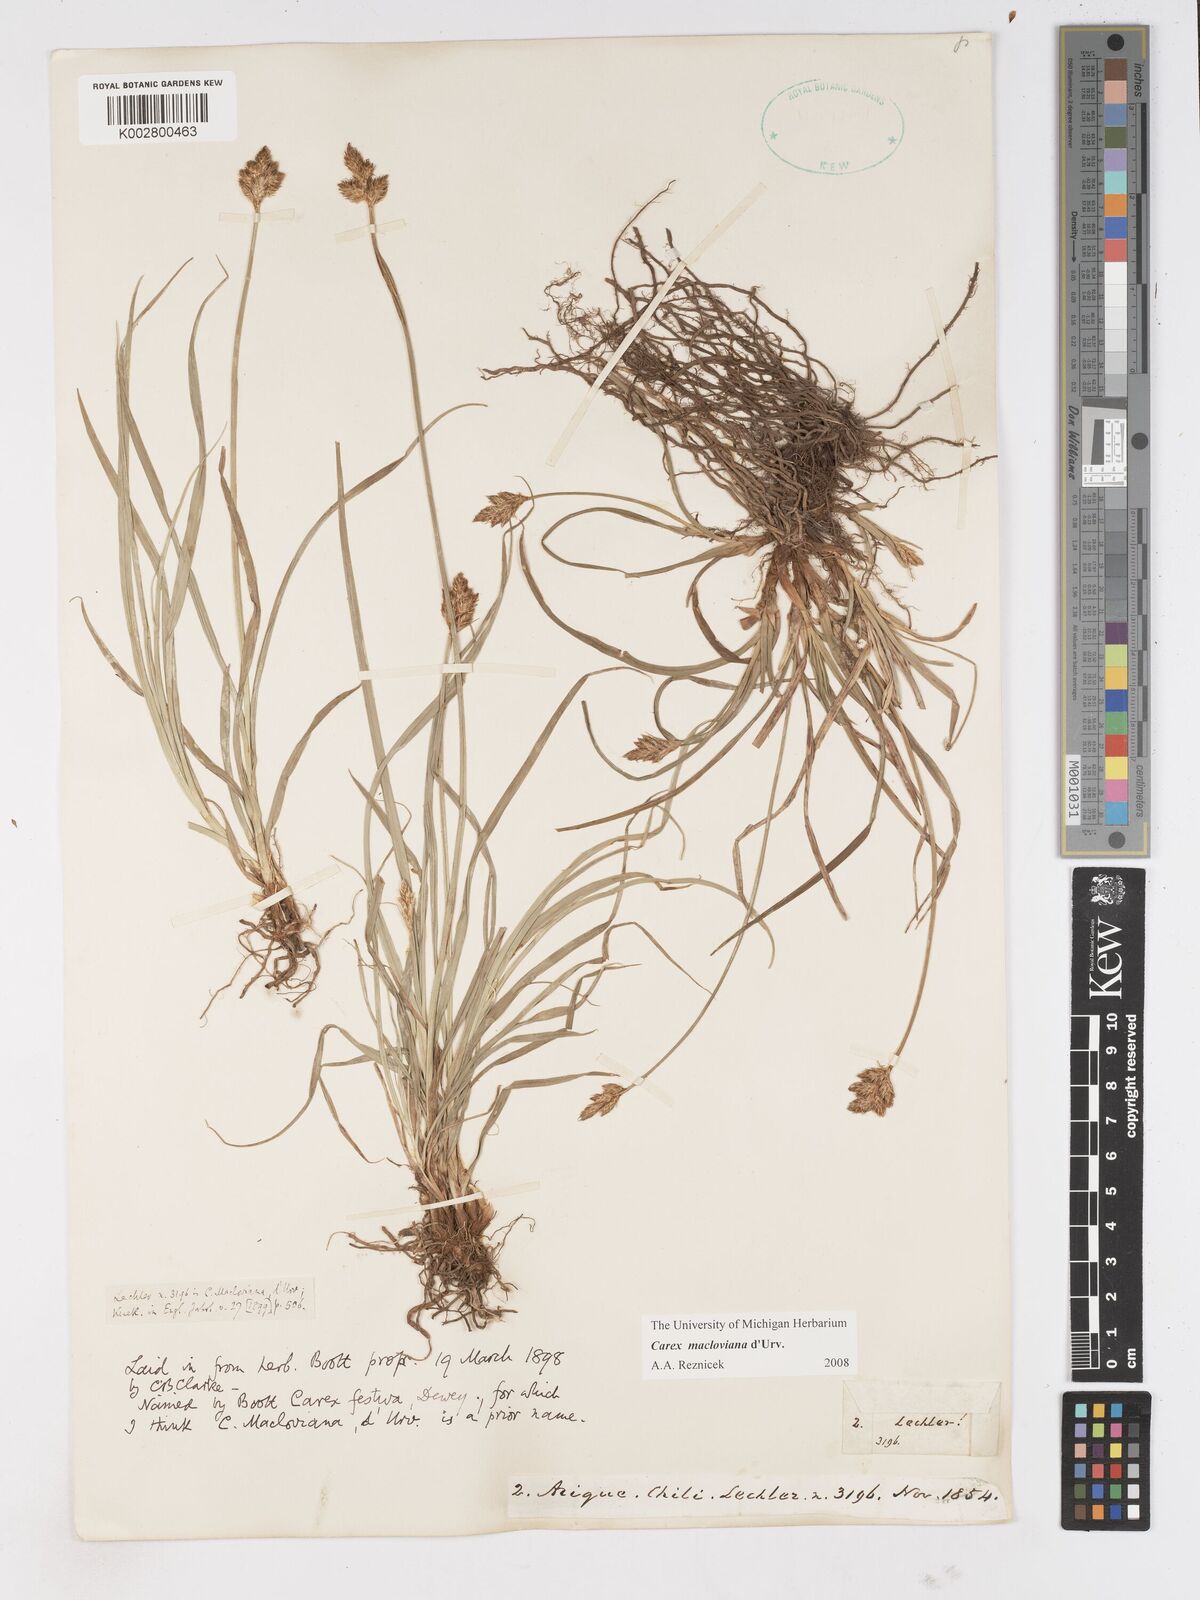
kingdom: Plantae
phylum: Tracheophyta
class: Liliopsida
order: Poales
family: Cyperaceae
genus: Carex
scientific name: Carex macloviana
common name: Falkland island sedge
